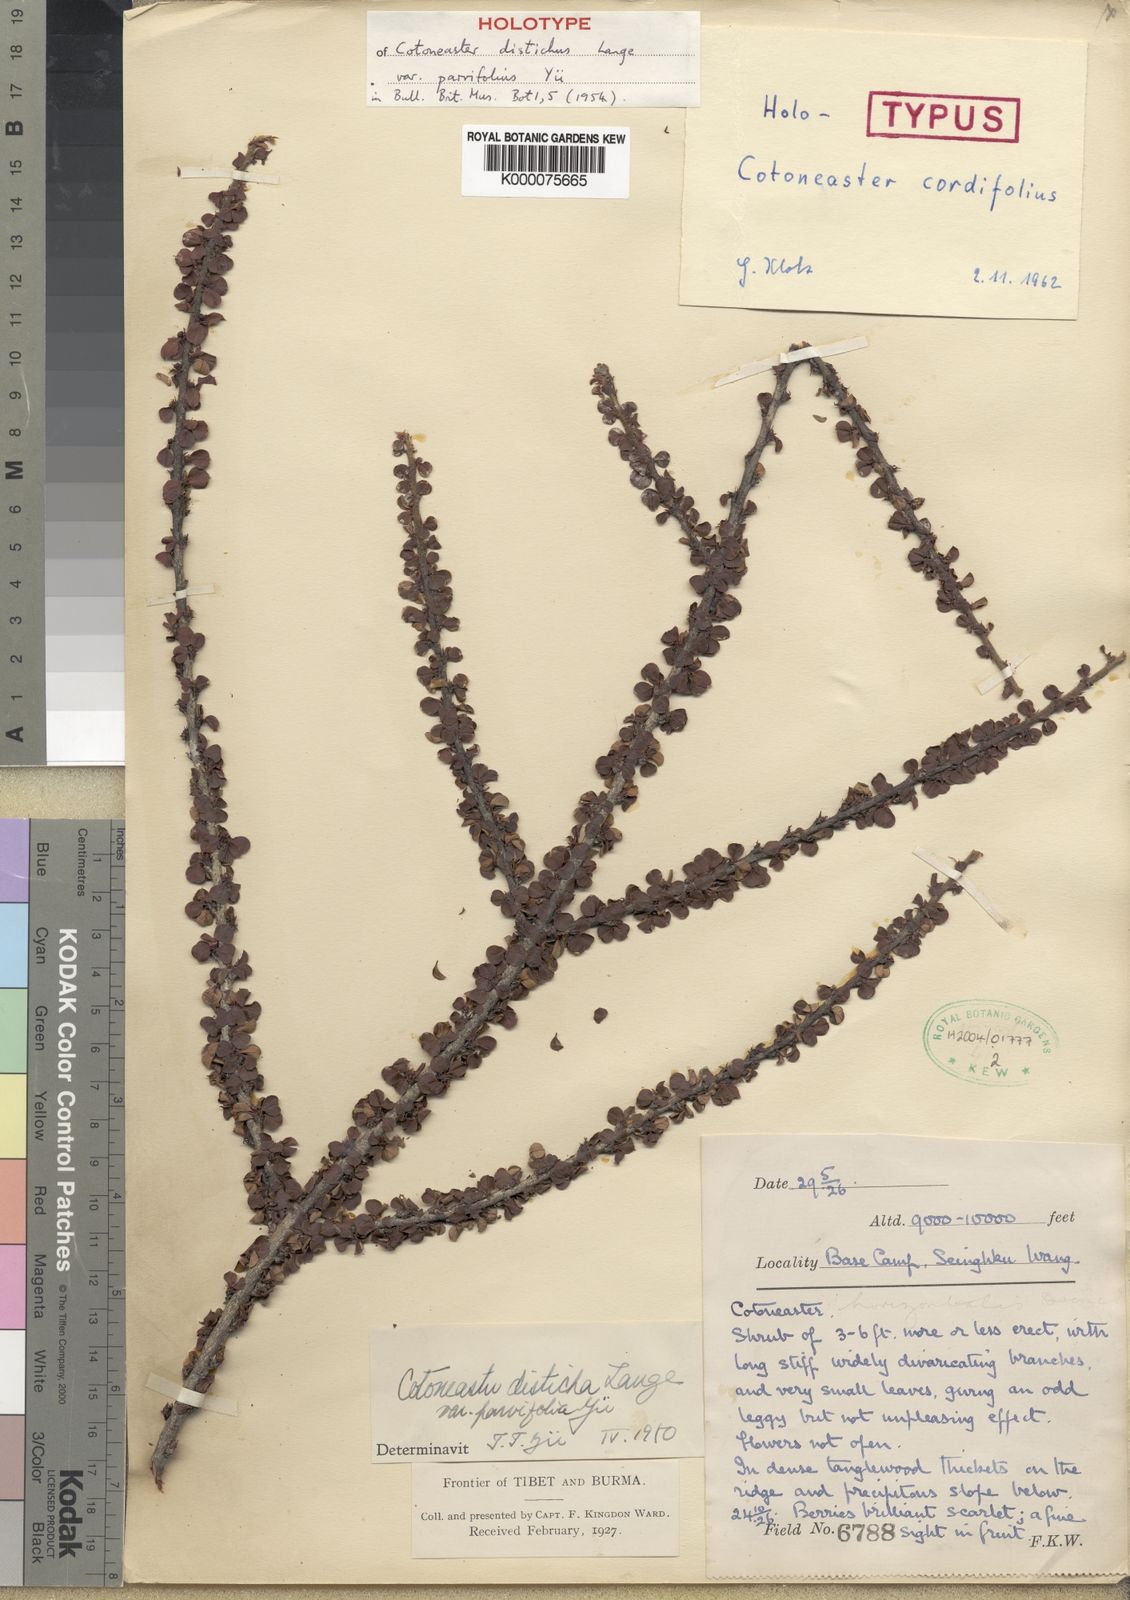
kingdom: Plantae
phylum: Tracheophyta
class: Magnoliopsida
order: Rosales
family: Rosaceae
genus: Cotoneaster
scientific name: Cotoneaster rotundifolius
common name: Round-leaved cotoneaster
